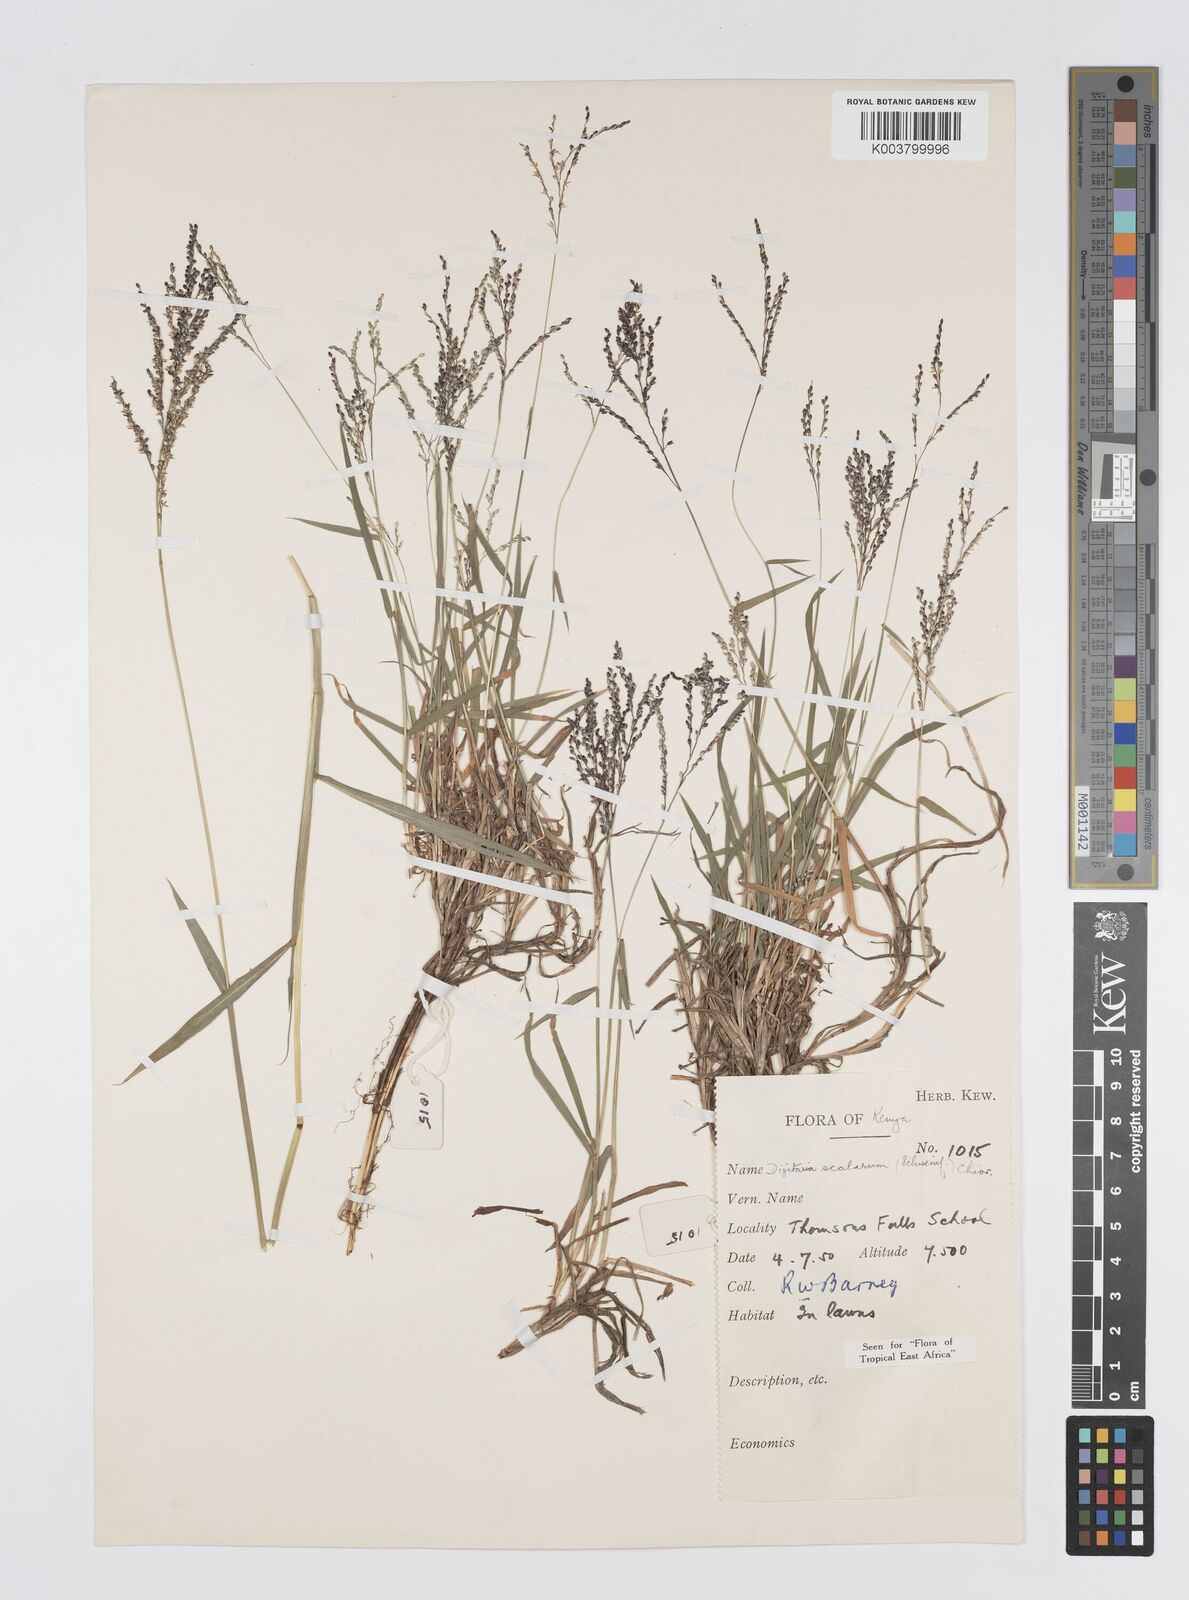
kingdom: Plantae
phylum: Tracheophyta
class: Liliopsida
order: Poales
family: Poaceae
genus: Digitaria
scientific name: Digitaria abyssinica
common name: African couchgrass
